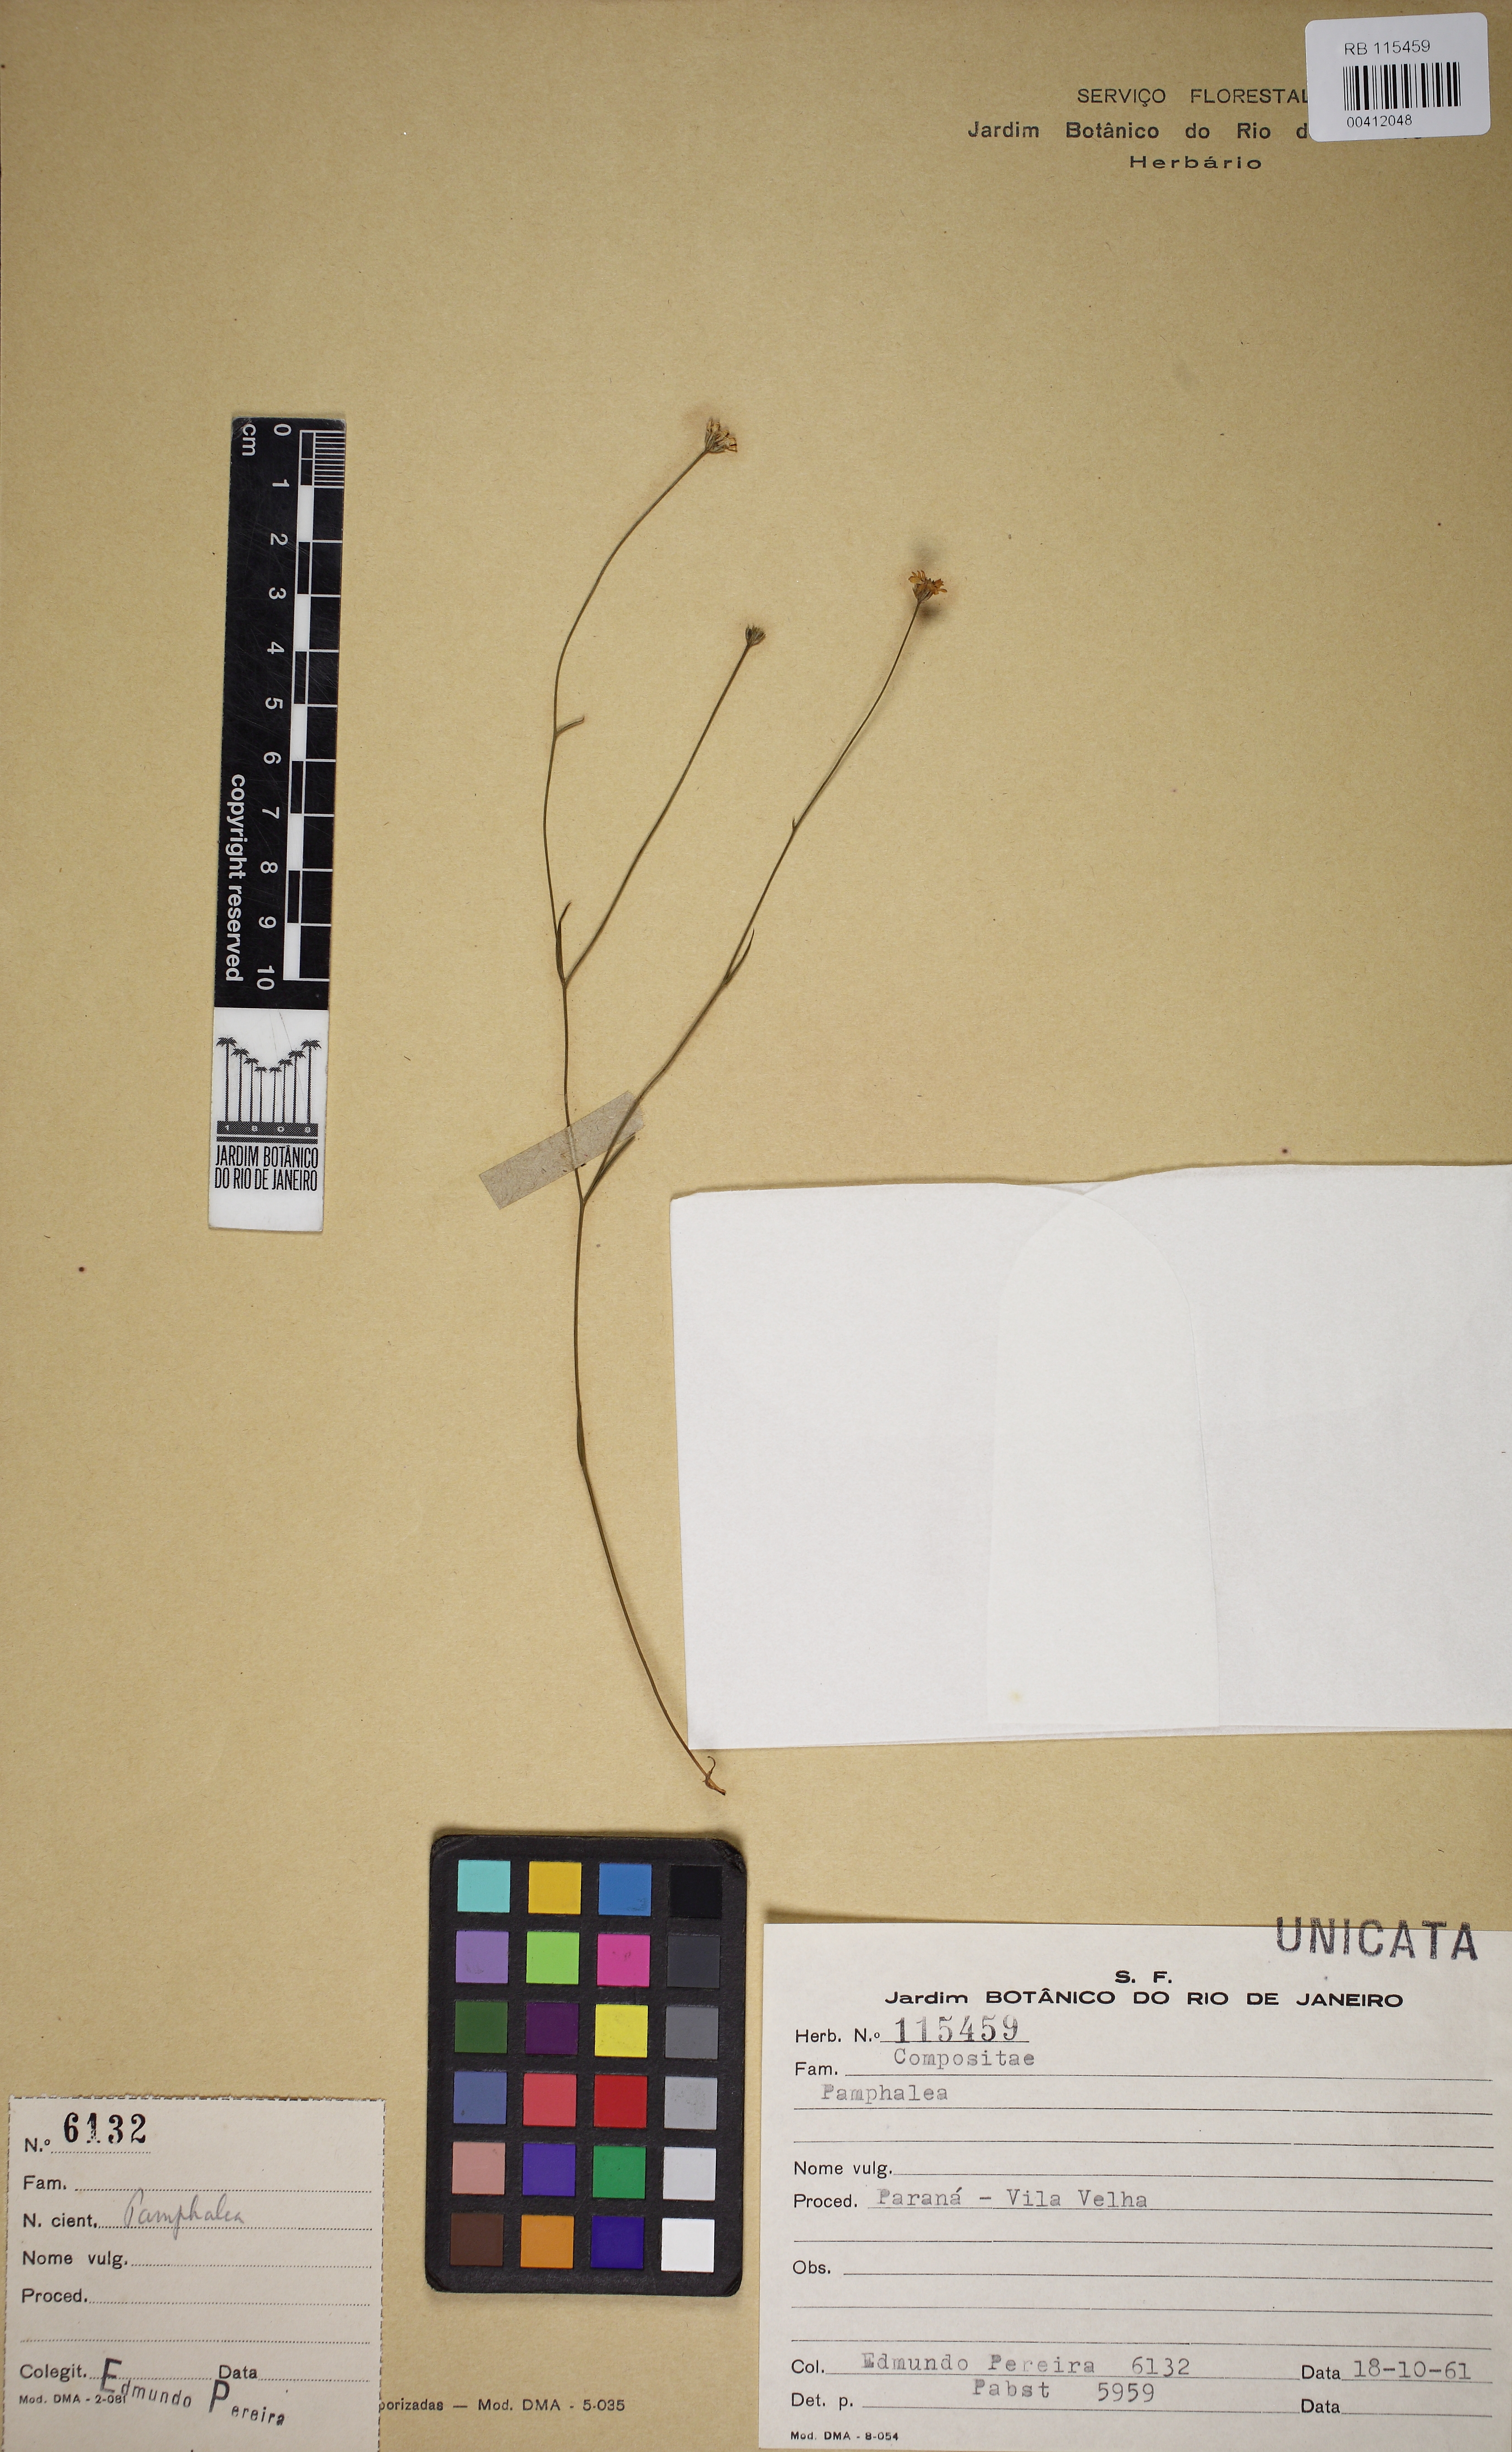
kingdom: Plantae
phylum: Tracheophyta
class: Magnoliopsida
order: Asterales
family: Asteraceae
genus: Panphalea
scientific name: Panphalea
